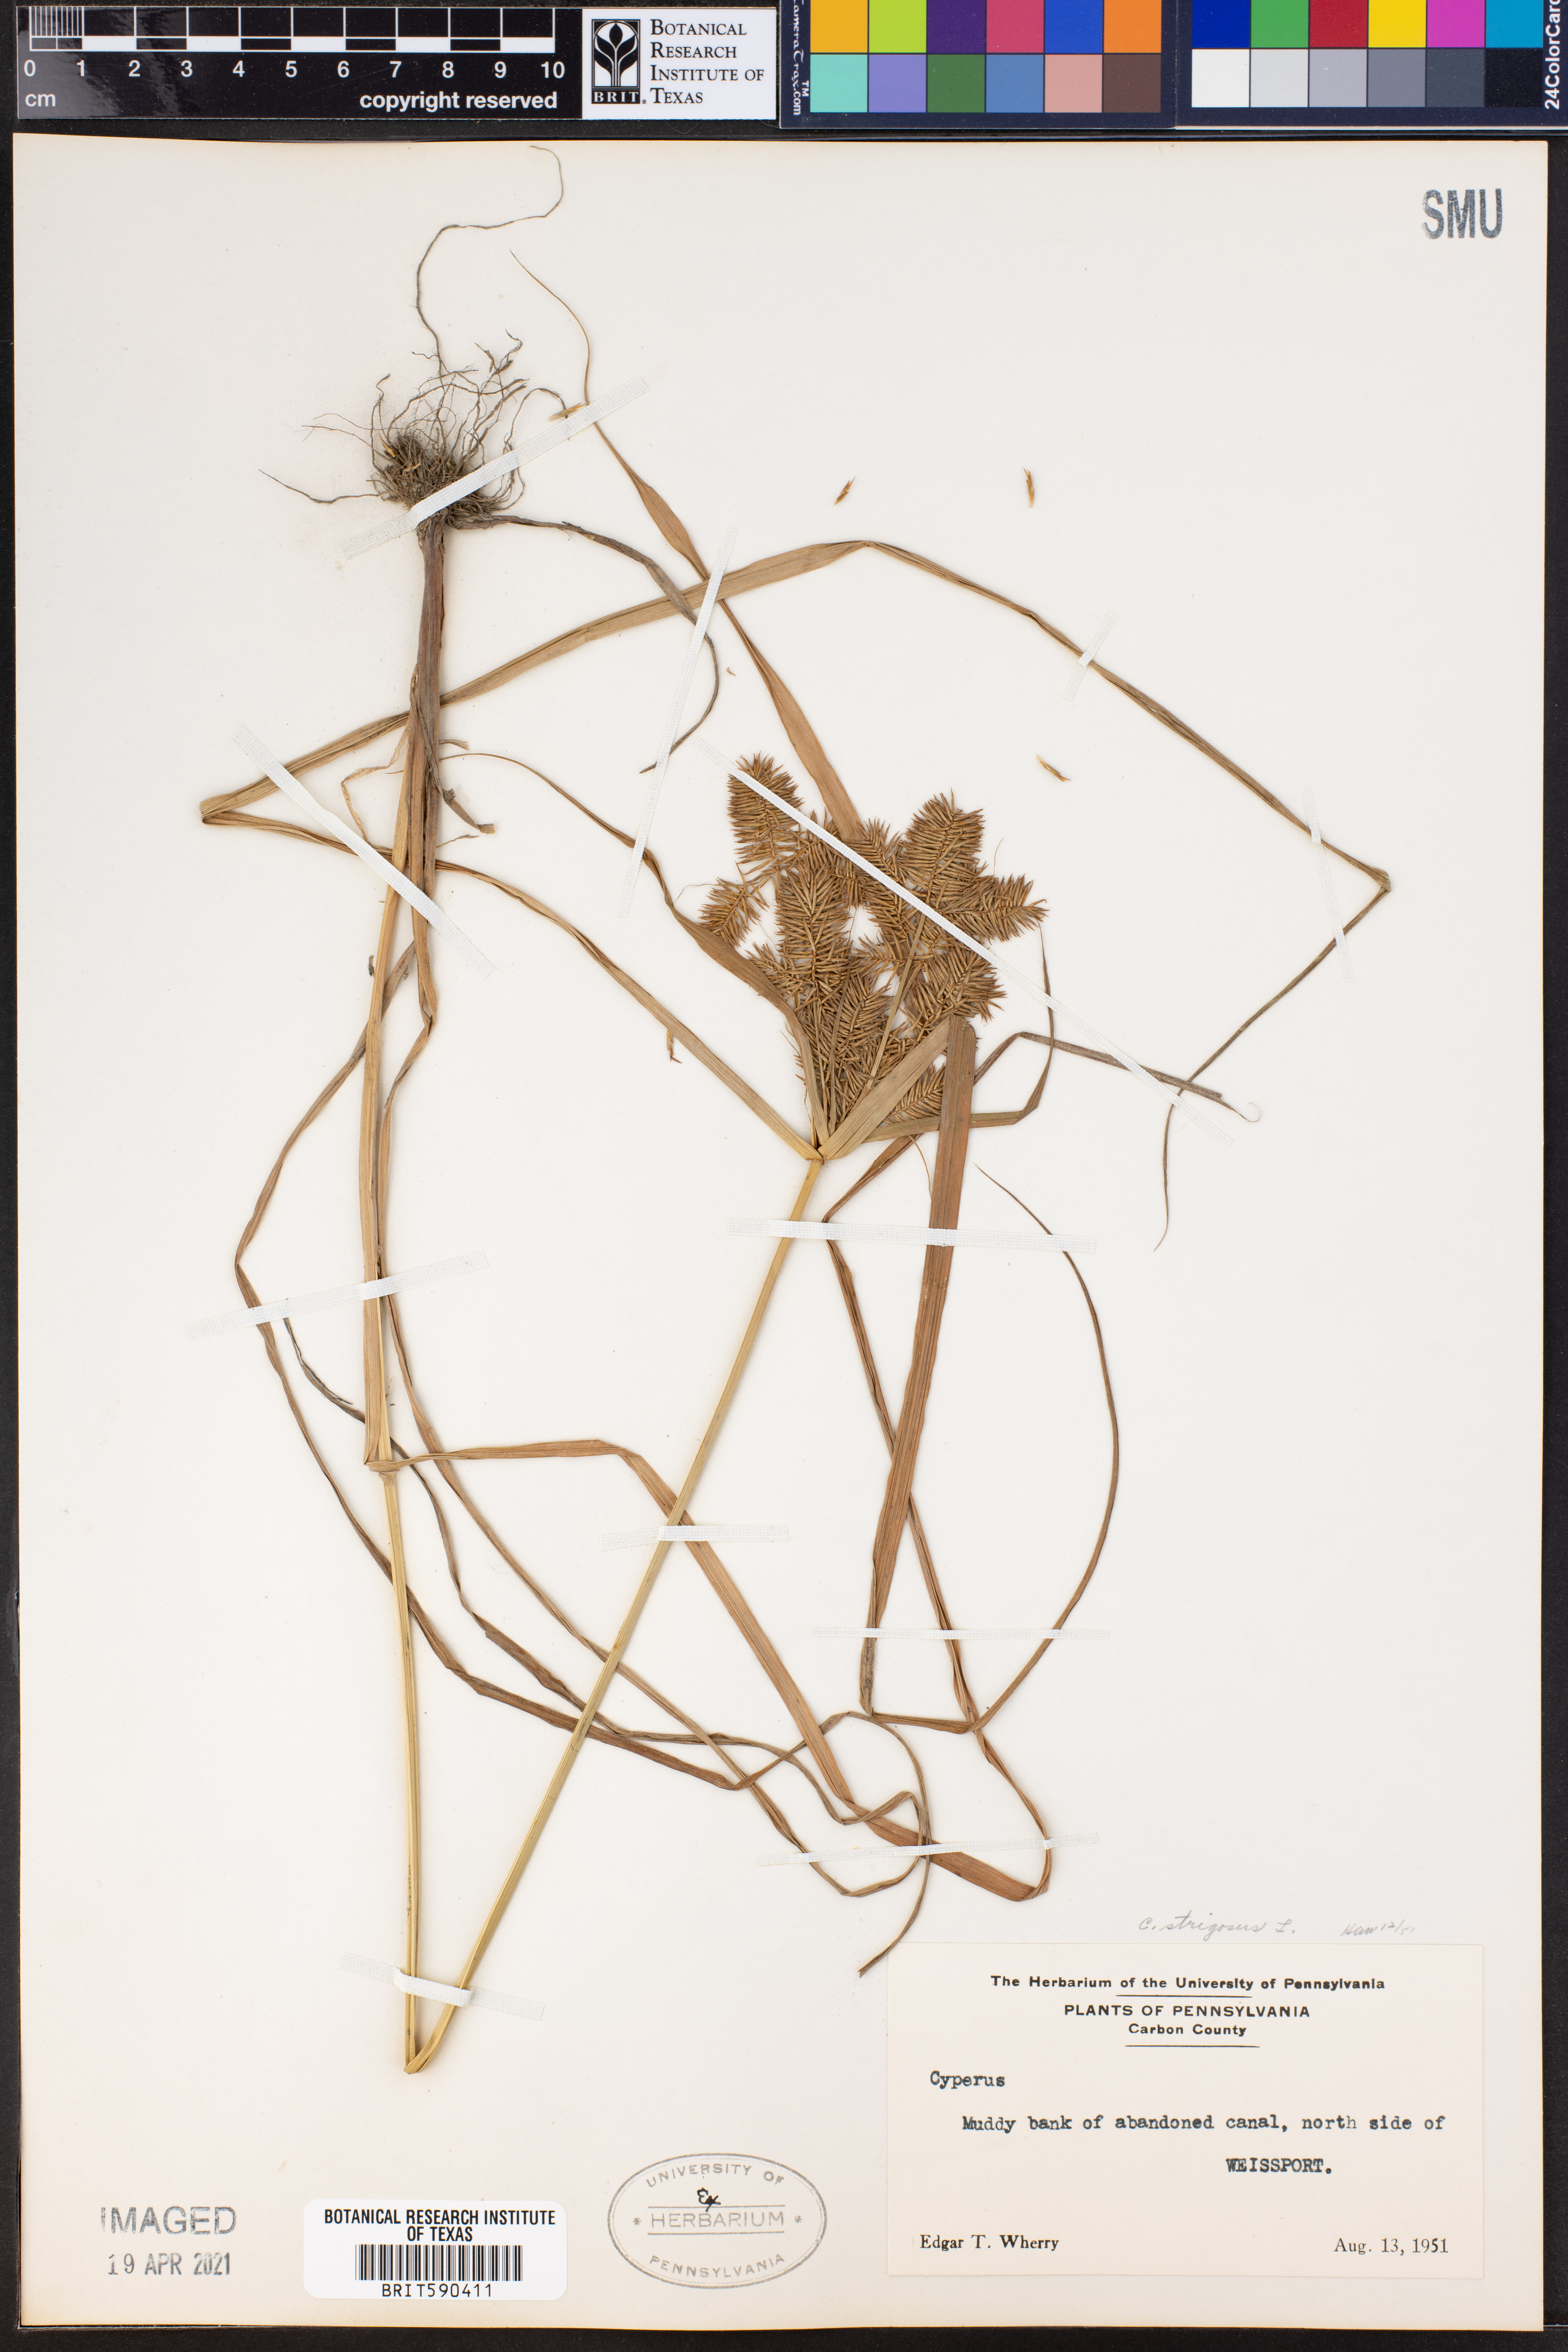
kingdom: Plantae
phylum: Tracheophyta
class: Liliopsida
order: Poales
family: Cyperaceae
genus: Cyperus
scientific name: Cyperus strigosus
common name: False nutsedge
